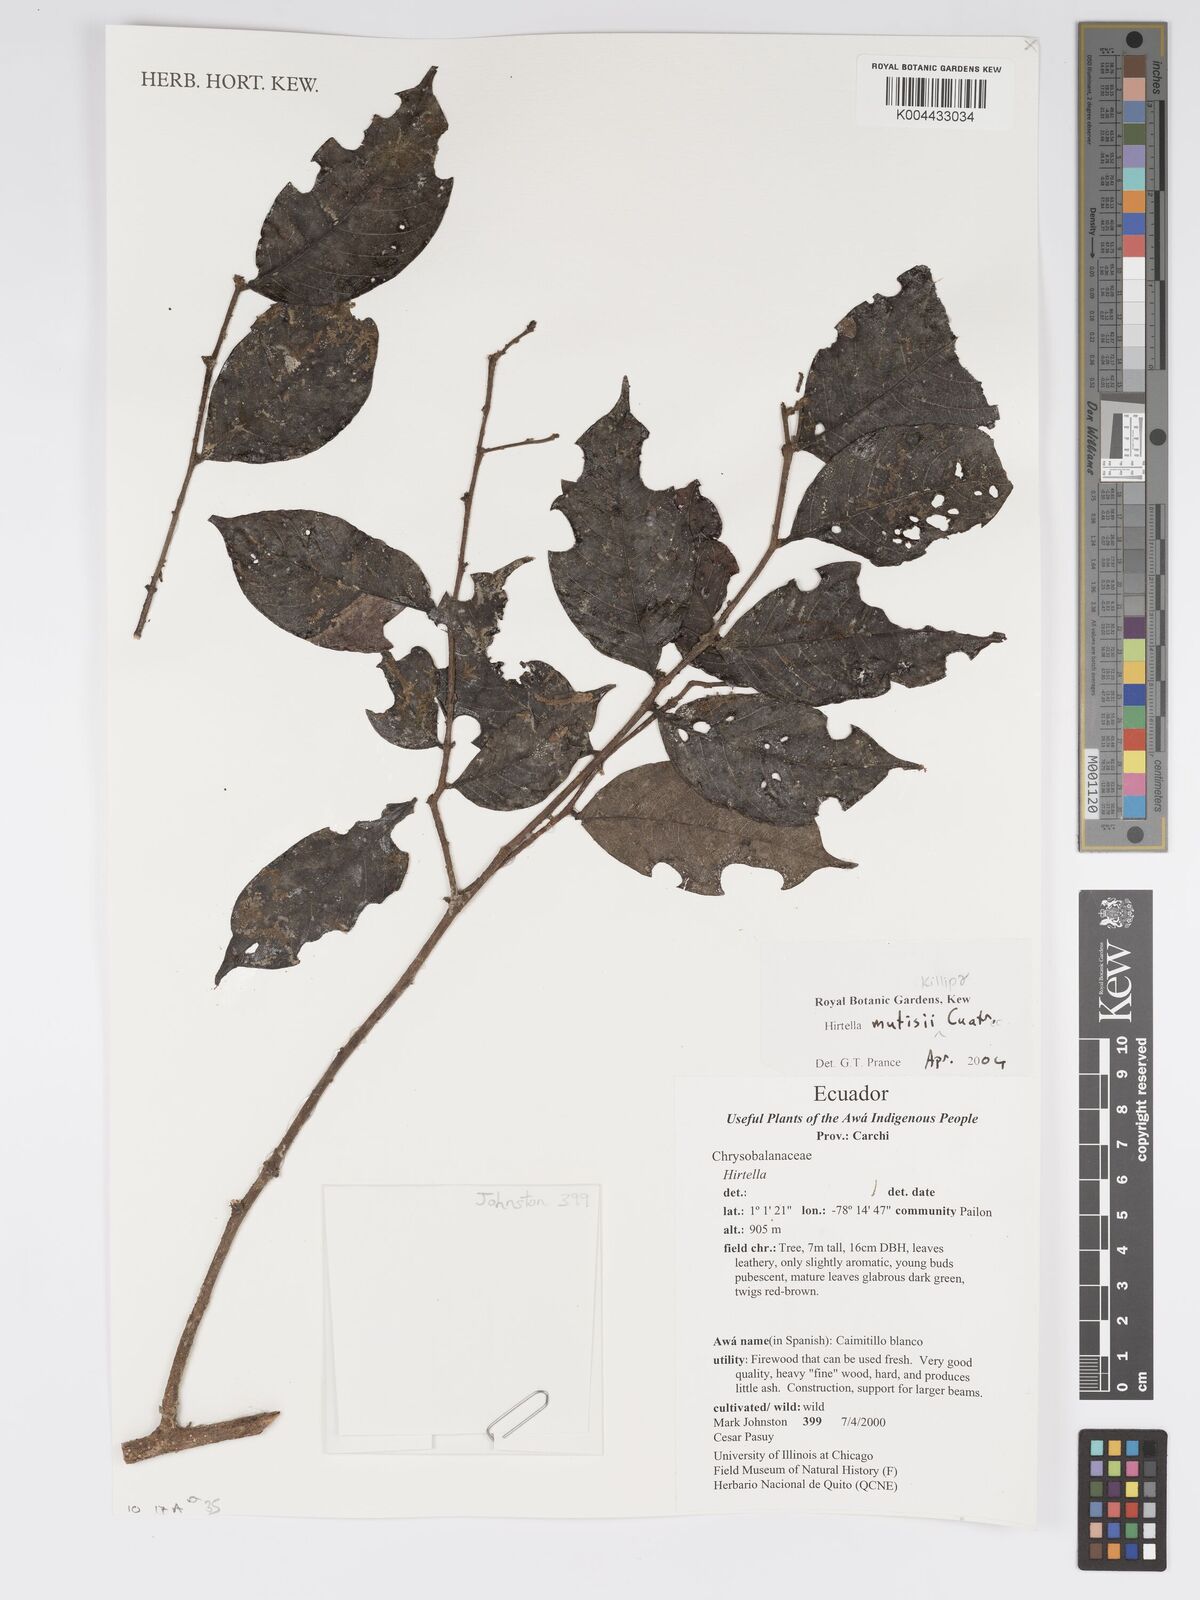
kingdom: Plantae
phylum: Tracheophyta
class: Magnoliopsida
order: Malpighiales
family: Chrysobalanaceae
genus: Hirtella
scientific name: Hirtella mutisii
